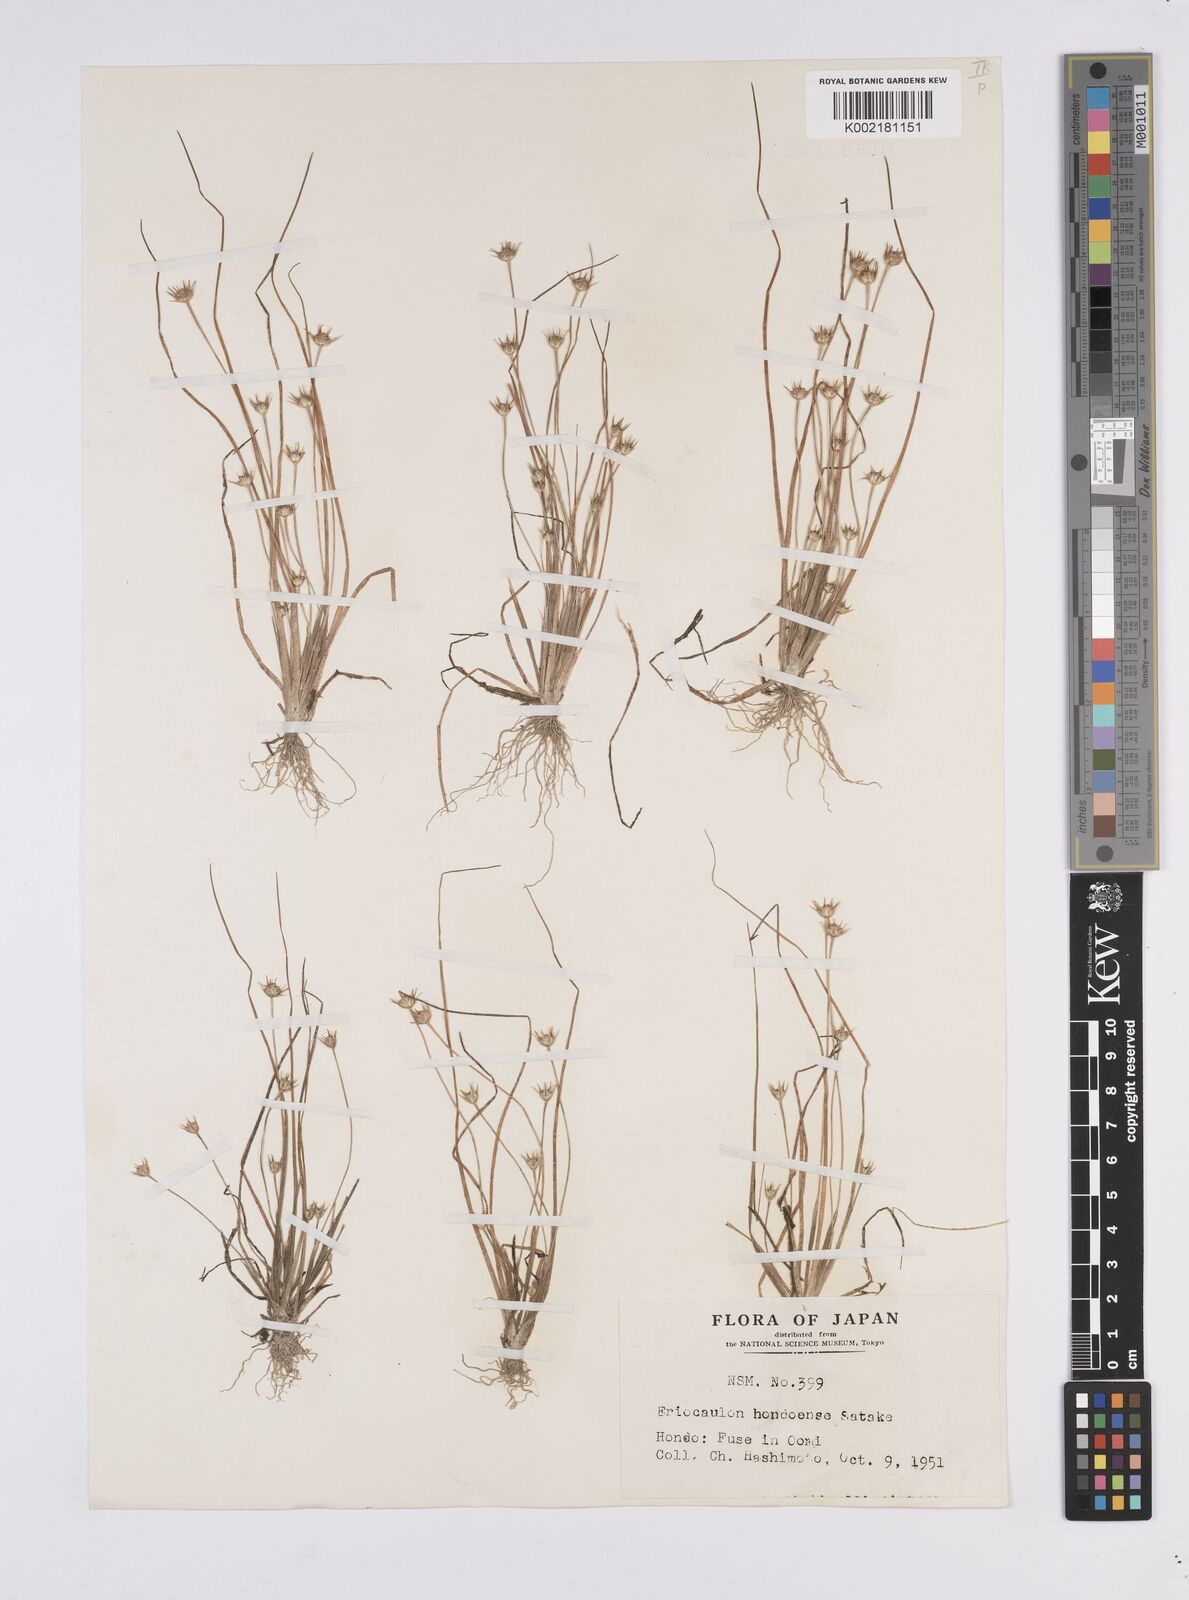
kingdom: Plantae
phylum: Tracheophyta
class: Liliopsida
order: Poales
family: Eriocaulaceae
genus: Eriocaulon
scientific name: Eriocaulon taquetii
